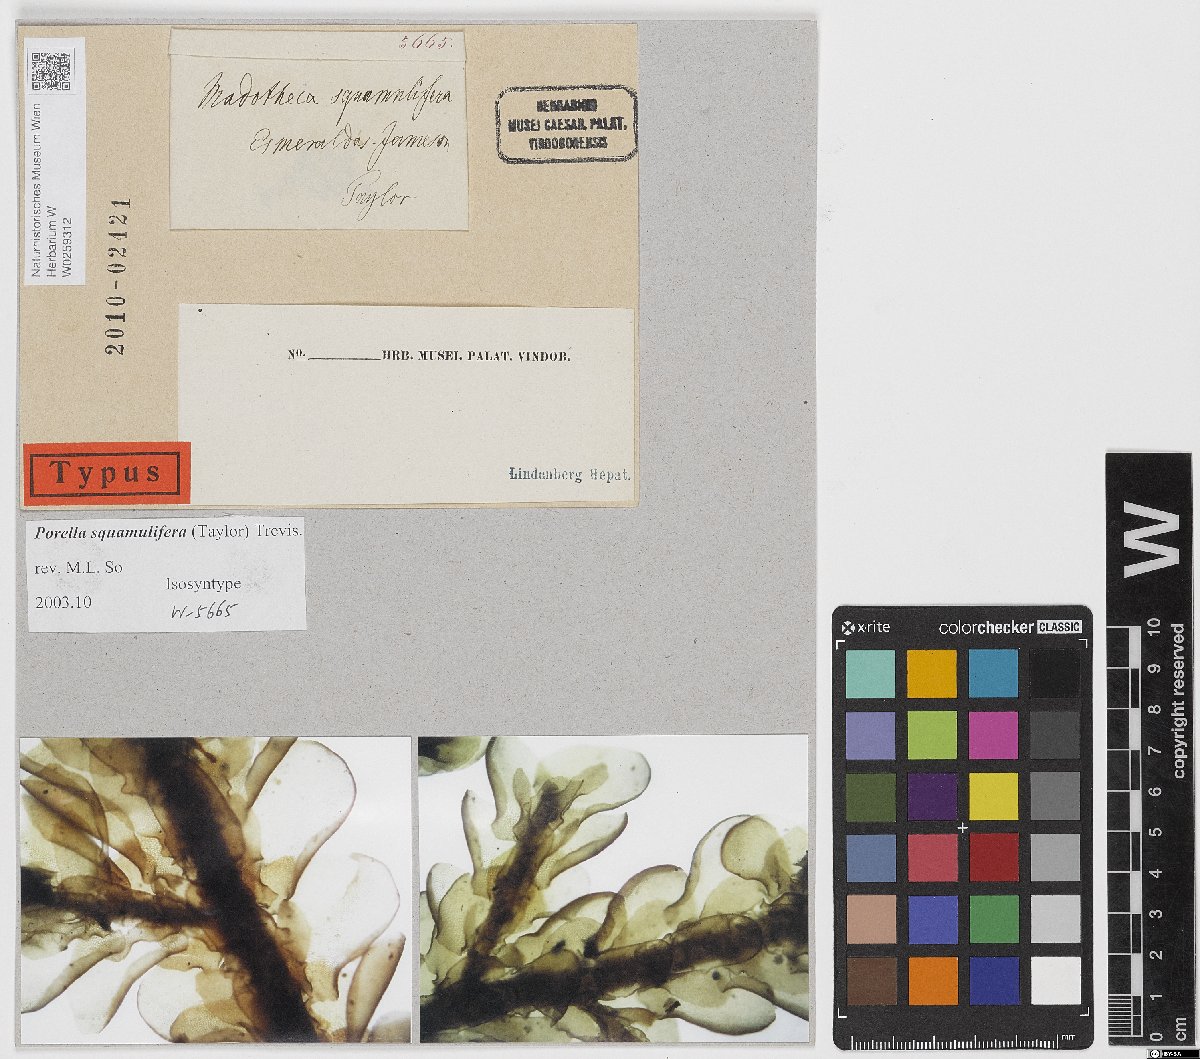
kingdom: Plantae
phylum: Marchantiophyta
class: Jungermanniopsida
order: Porellales
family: Porellaceae
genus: Porella
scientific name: Porella squamulifera
